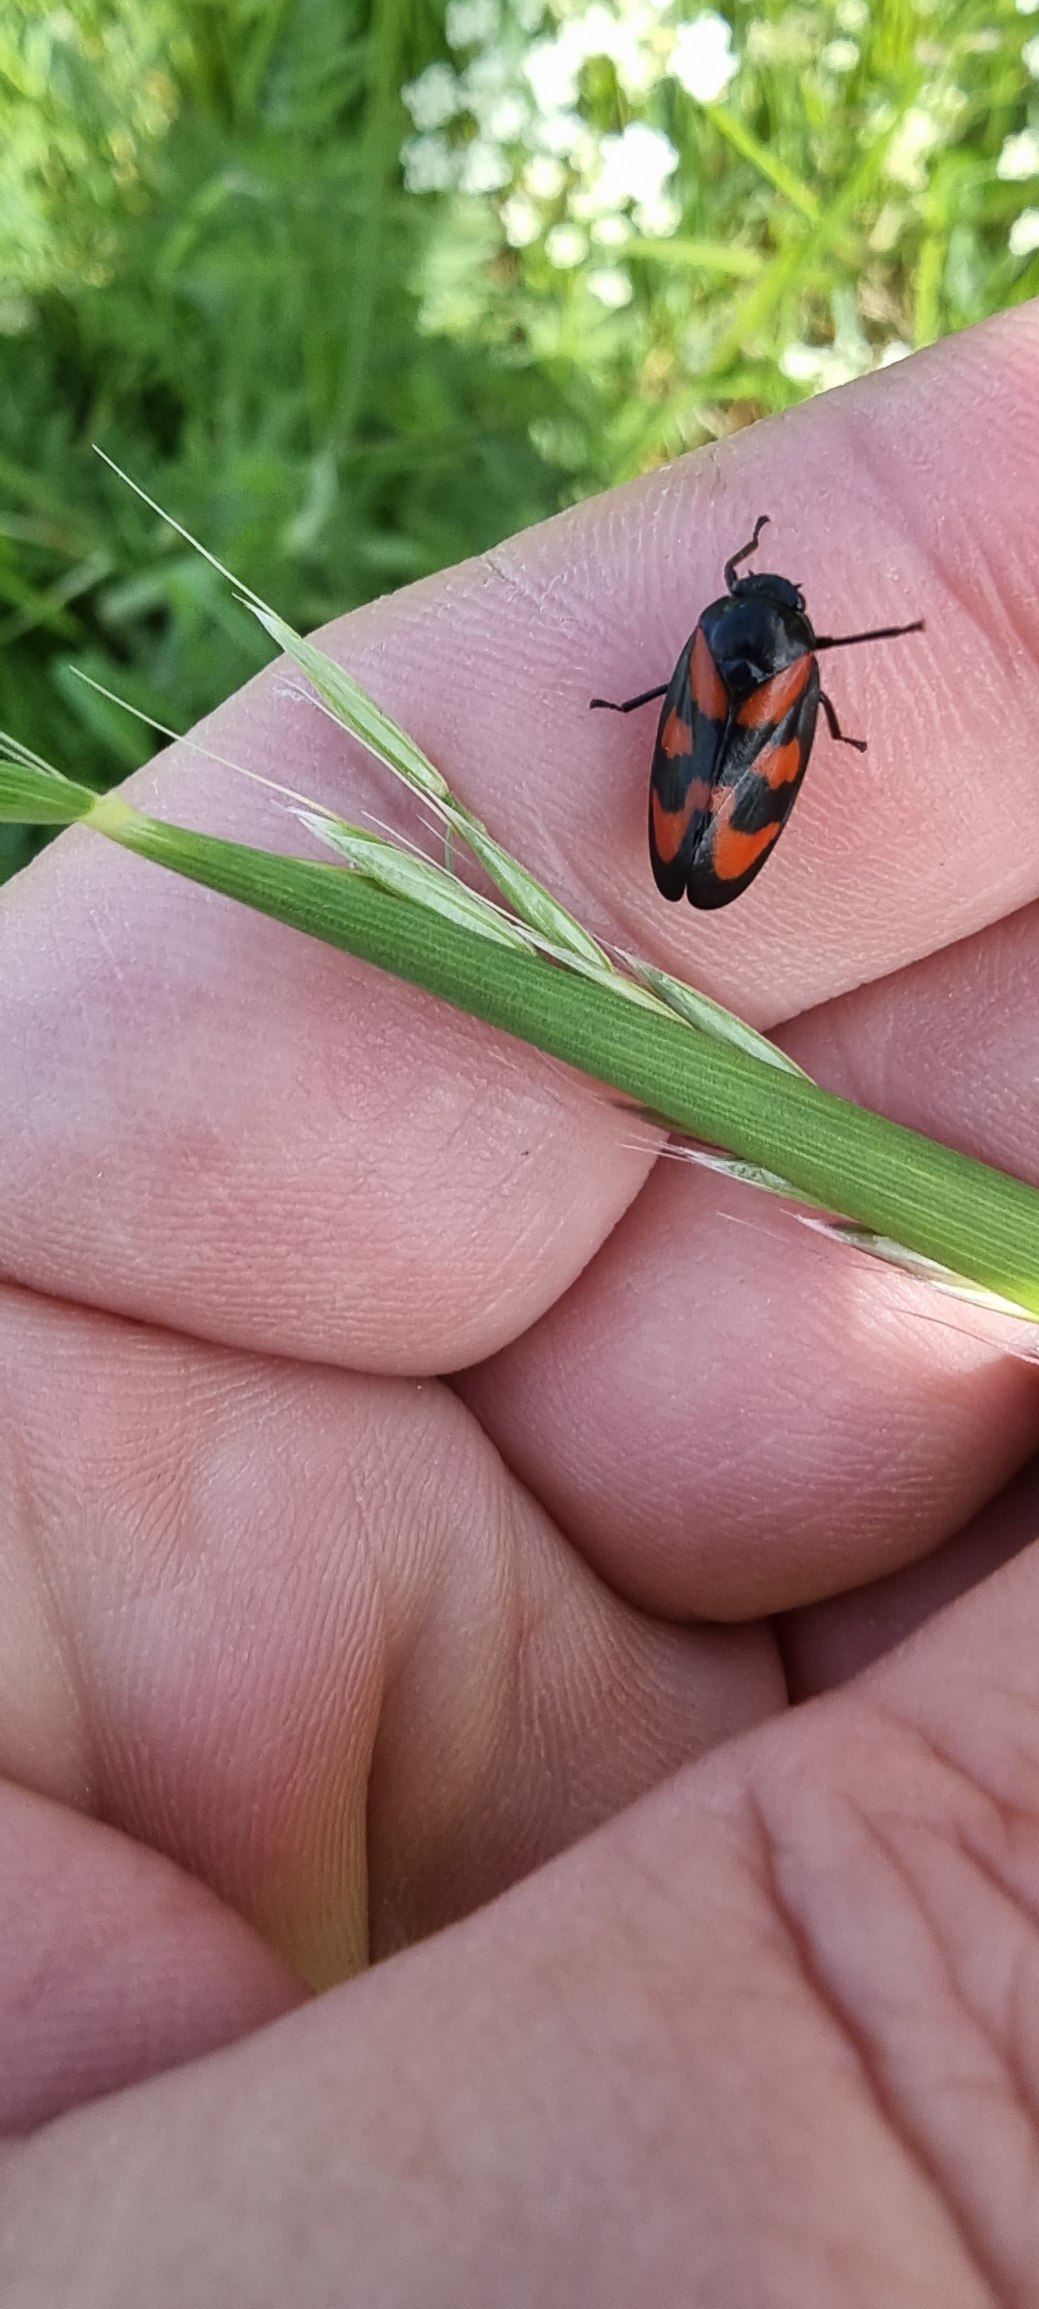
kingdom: Animalia
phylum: Arthropoda
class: Insecta
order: Hemiptera
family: Cercopidae
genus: Cercopis
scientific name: Cercopis vulnerata
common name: Blodcikade
